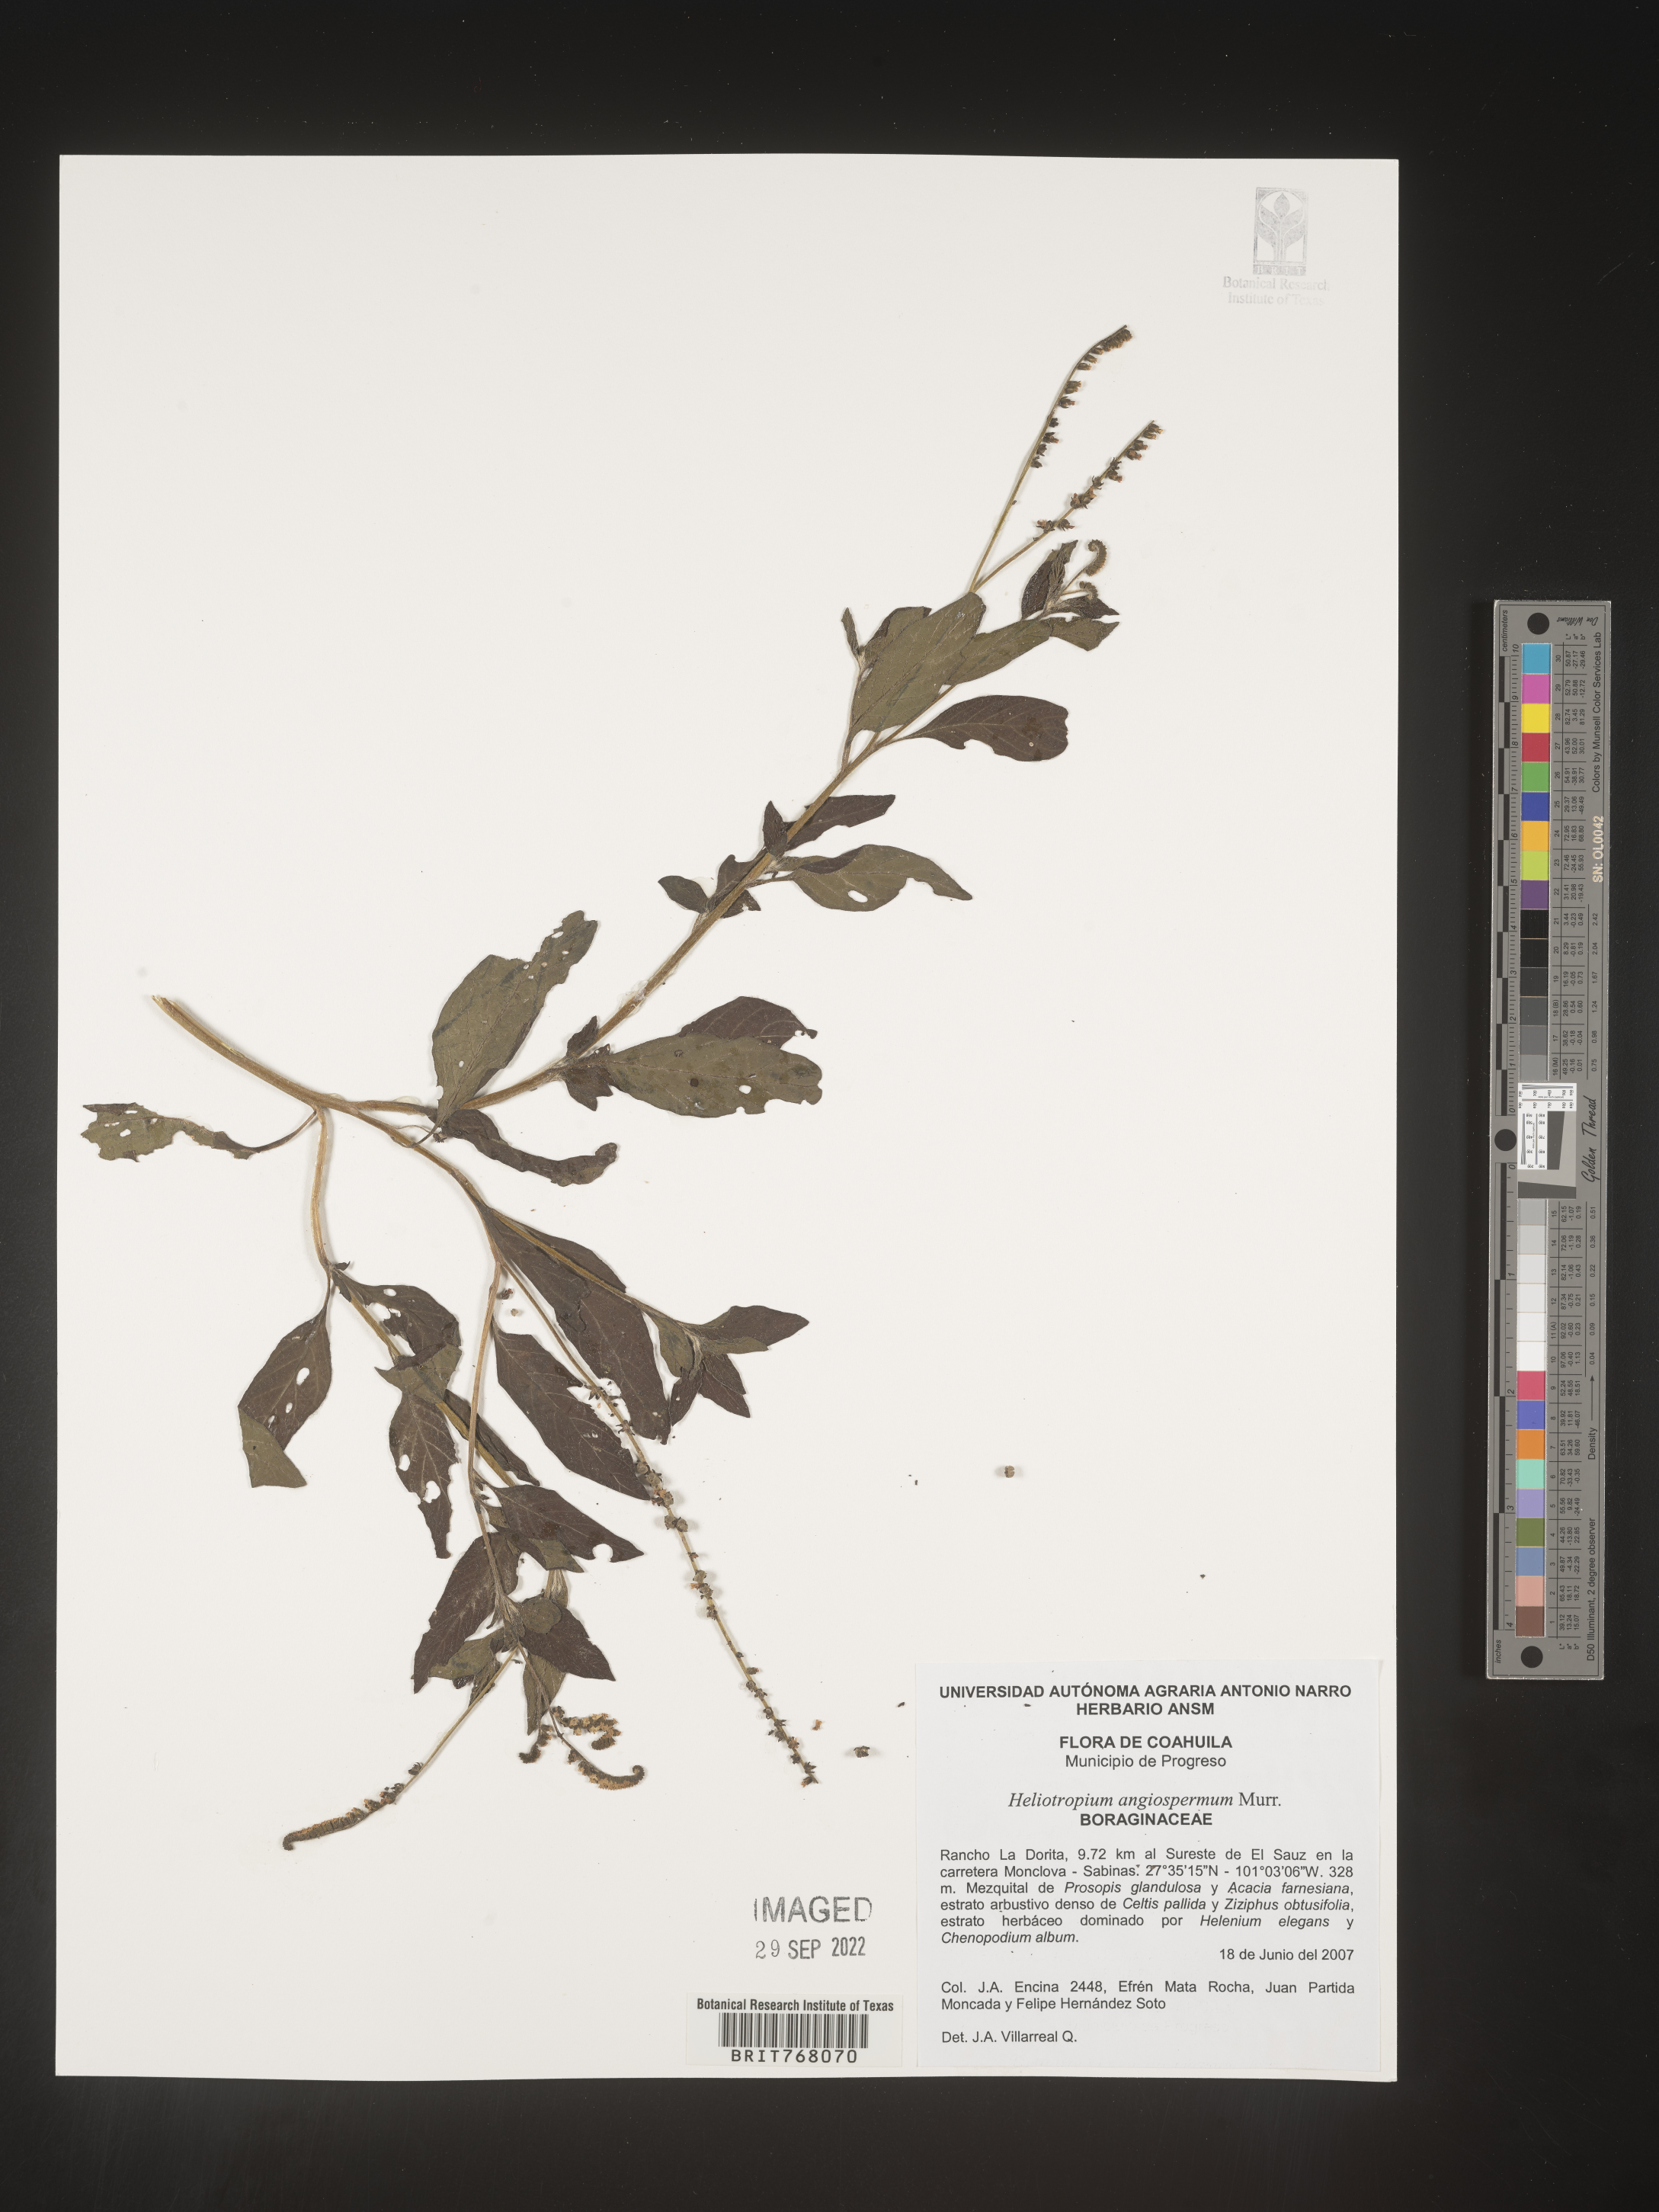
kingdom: Plantae
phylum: Tracheophyta
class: Magnoliopsida
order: Boraginales
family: Heliotropiaceae
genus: Heliotropium
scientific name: Heliotropium
